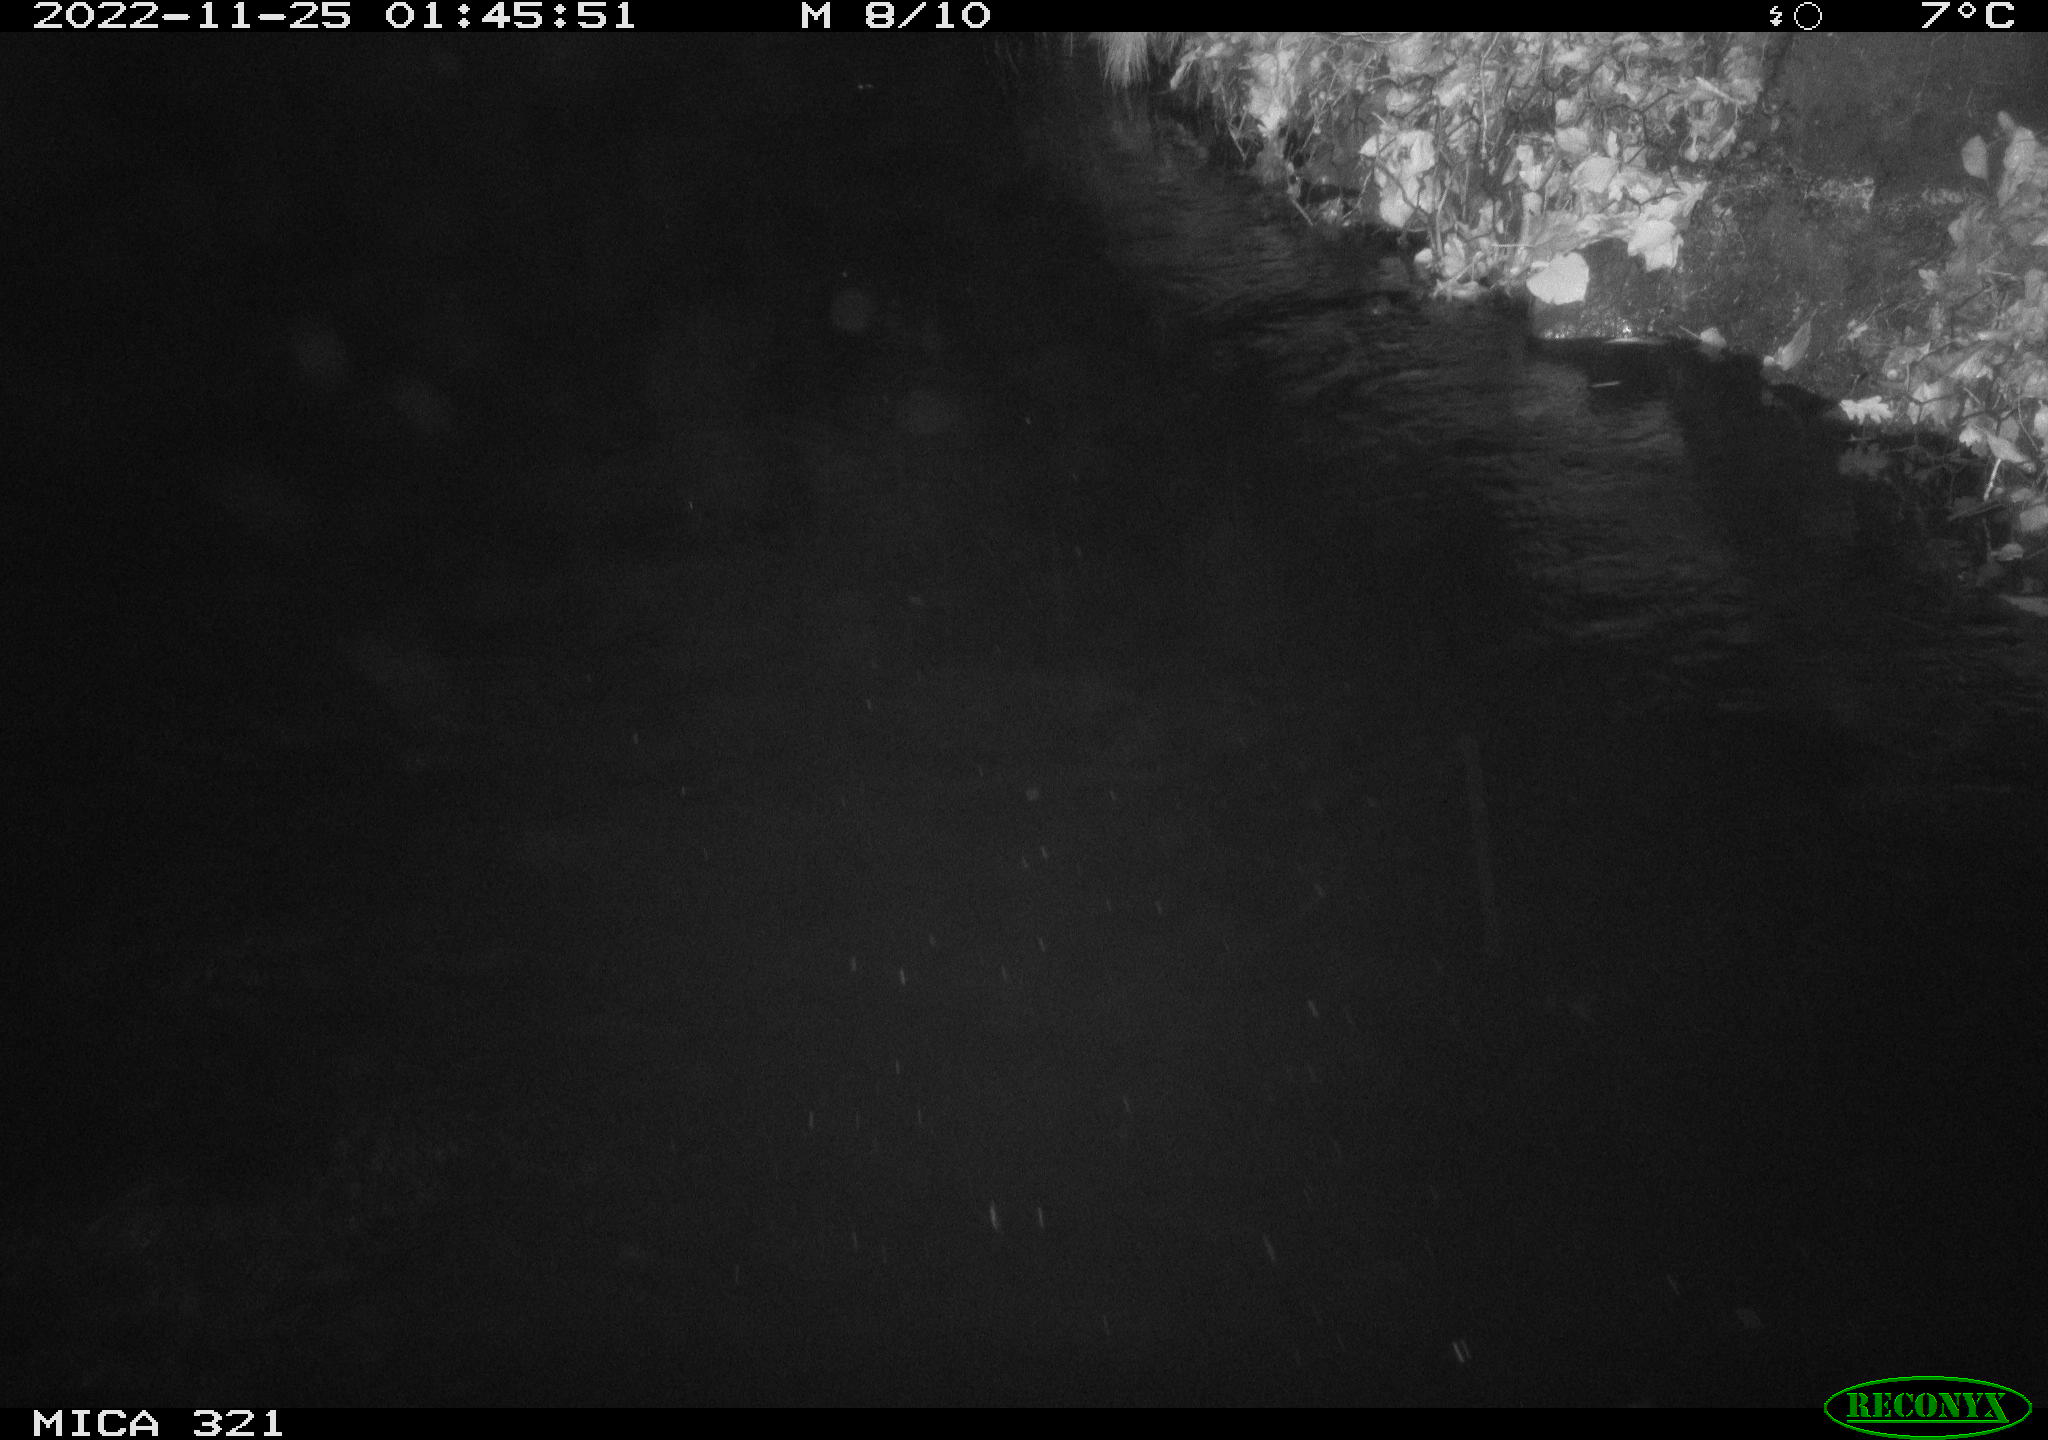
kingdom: Animalia
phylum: Chordata
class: Mammalia
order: Rodentia
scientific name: Rodentia
